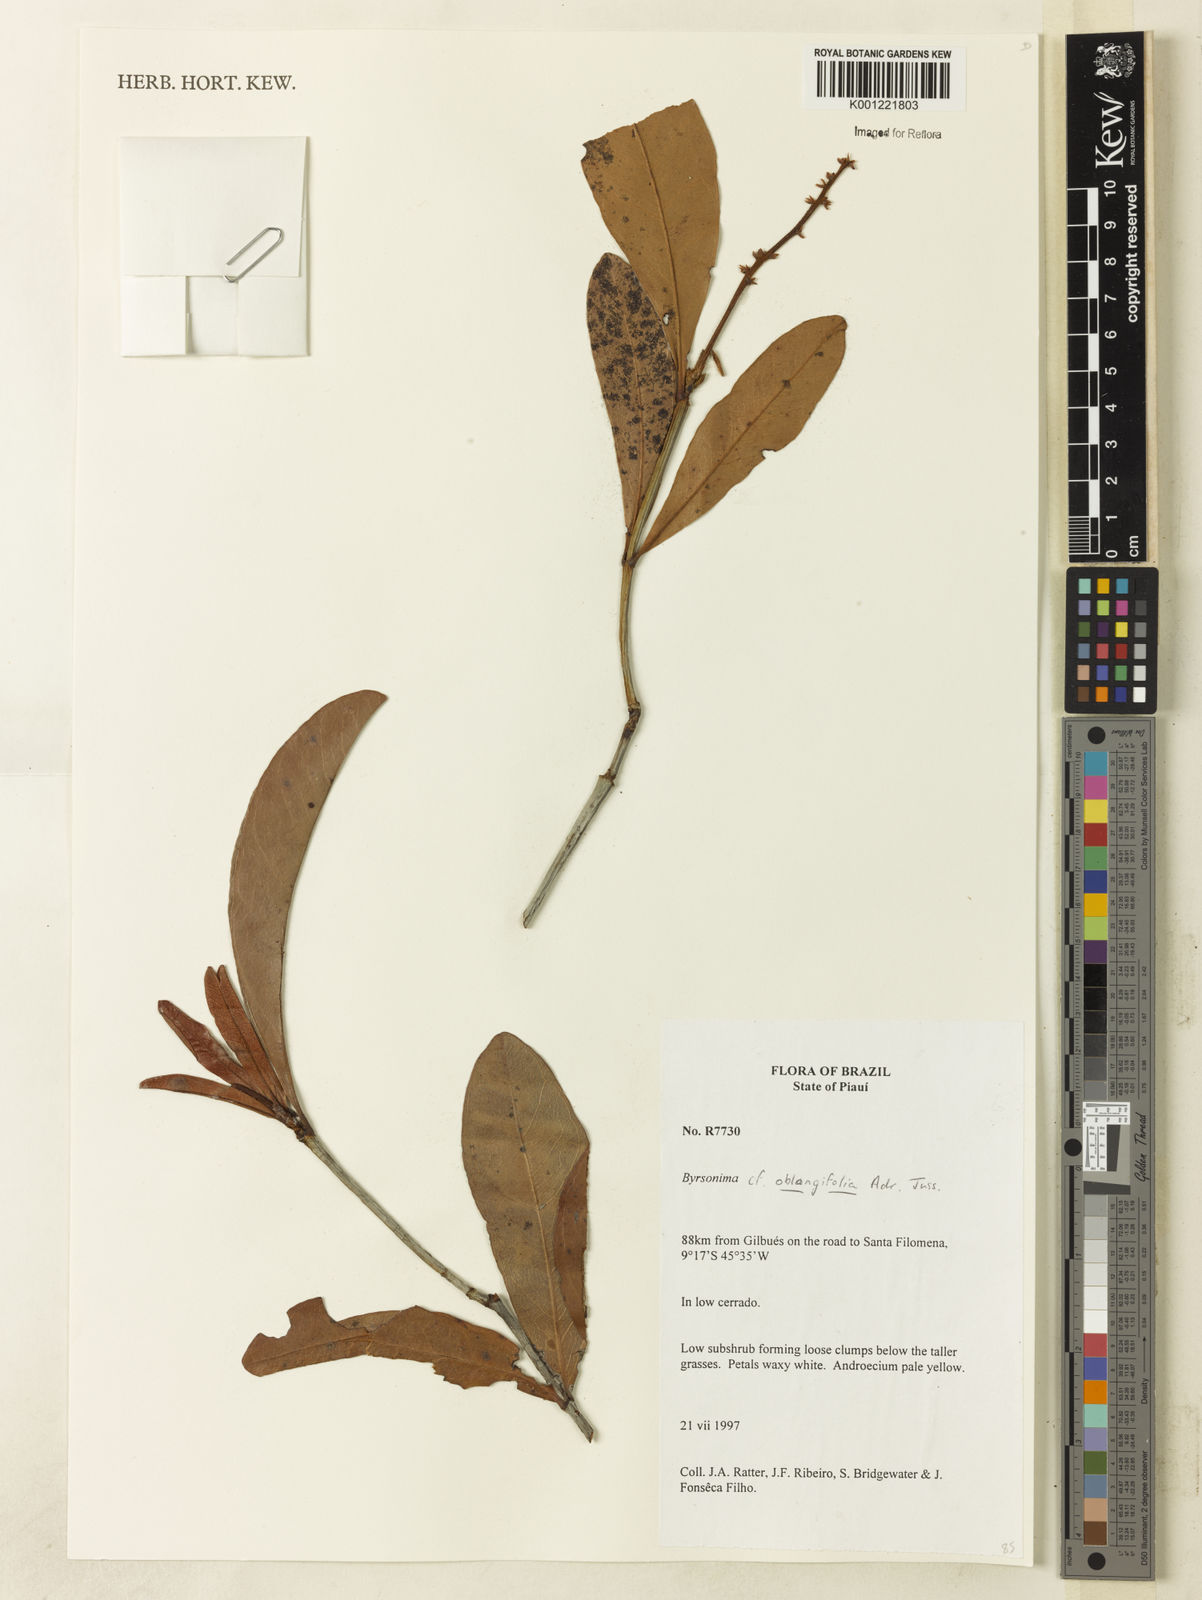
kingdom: Plantae
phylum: Tracheophyta
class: Magnoliopsida
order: Malpighiales
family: Malpighiaceae
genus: Byrsonima
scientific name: Byrsonima oblongifolia
